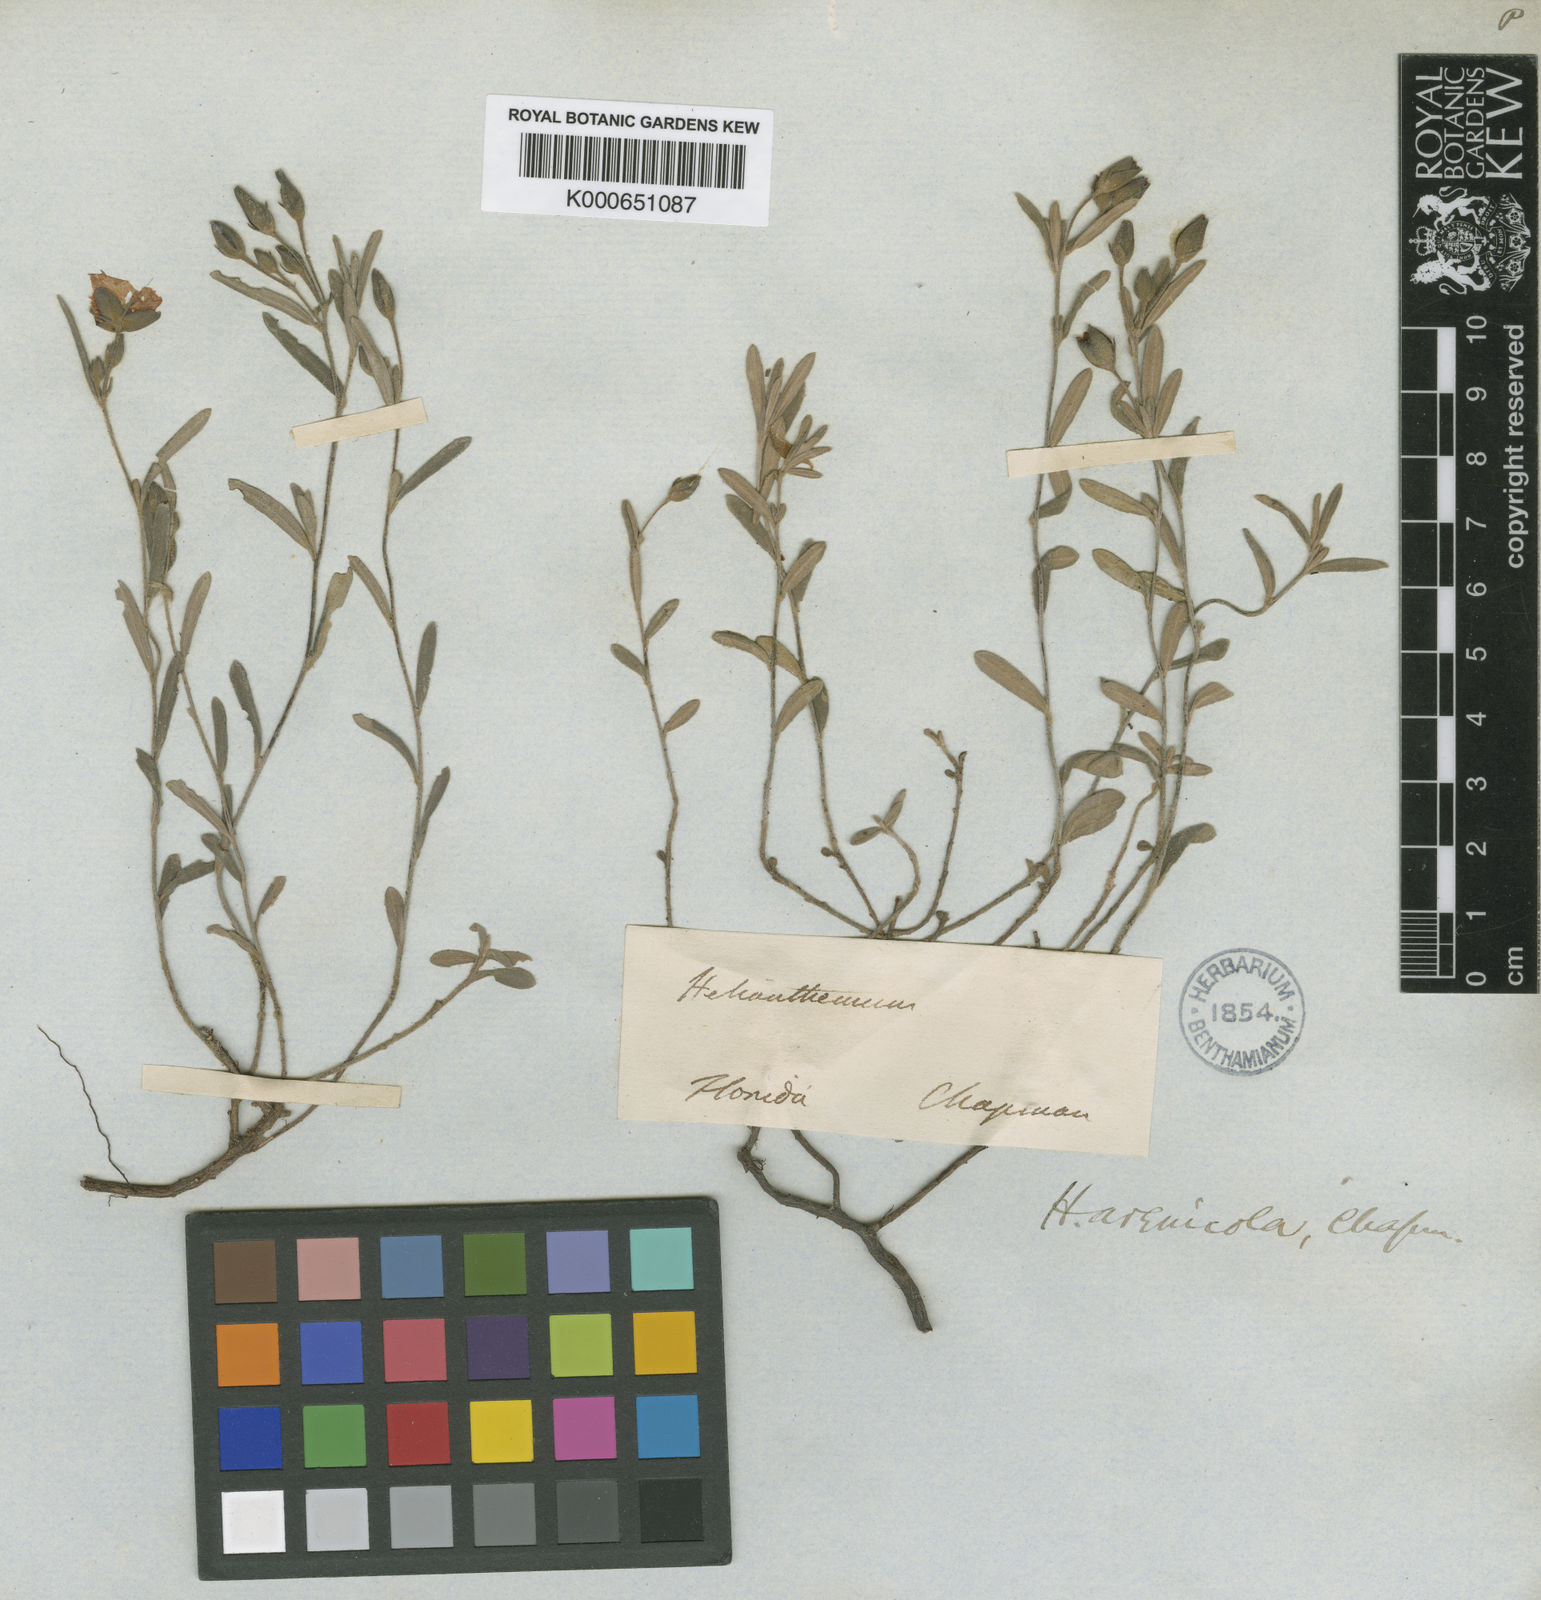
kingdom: Plantae
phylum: Tracheophyta
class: Magnoliopsida
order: Malvales
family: Cistaceae
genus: Crocanthemum
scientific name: Crocanthemum arenicola
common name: Gulf coast frostweed
